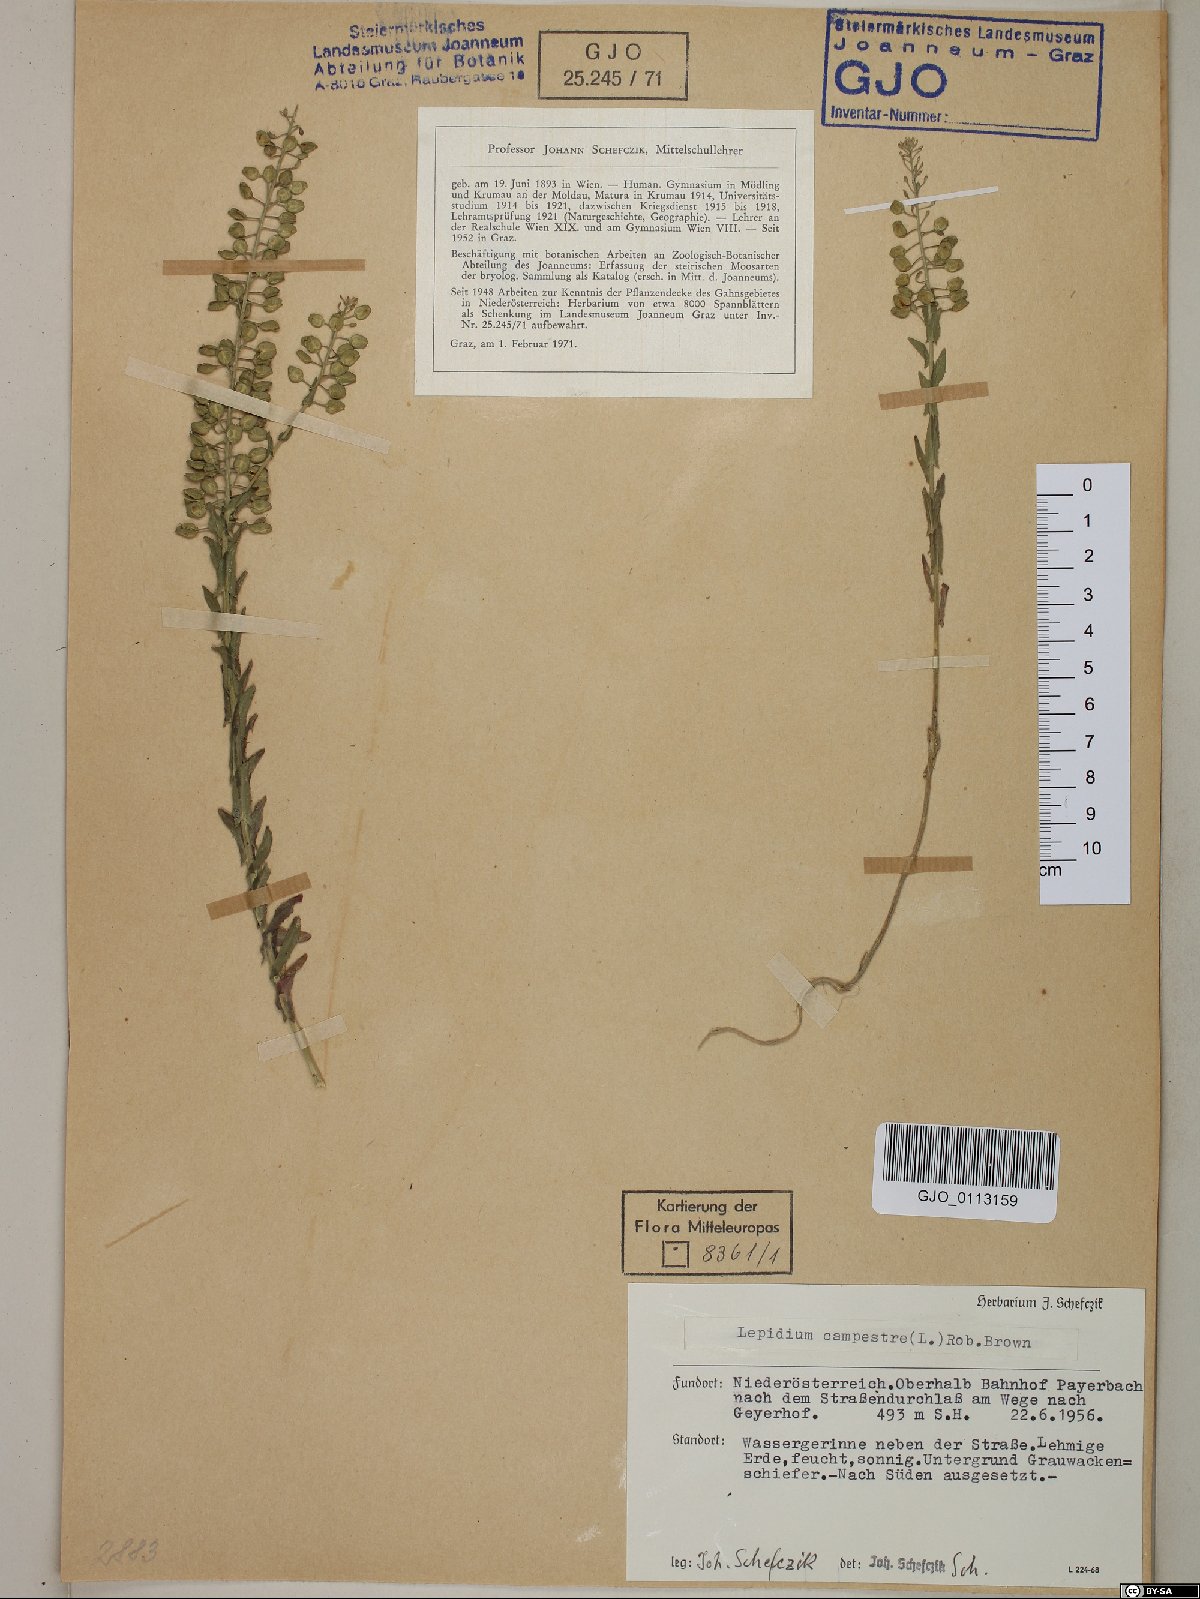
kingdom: Plantae
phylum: Tracheophyta
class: Magnoliopsida
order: Brassicales
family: Brassicaceae
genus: Lepidium
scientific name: Lepidium campestre
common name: Field pepperwort
